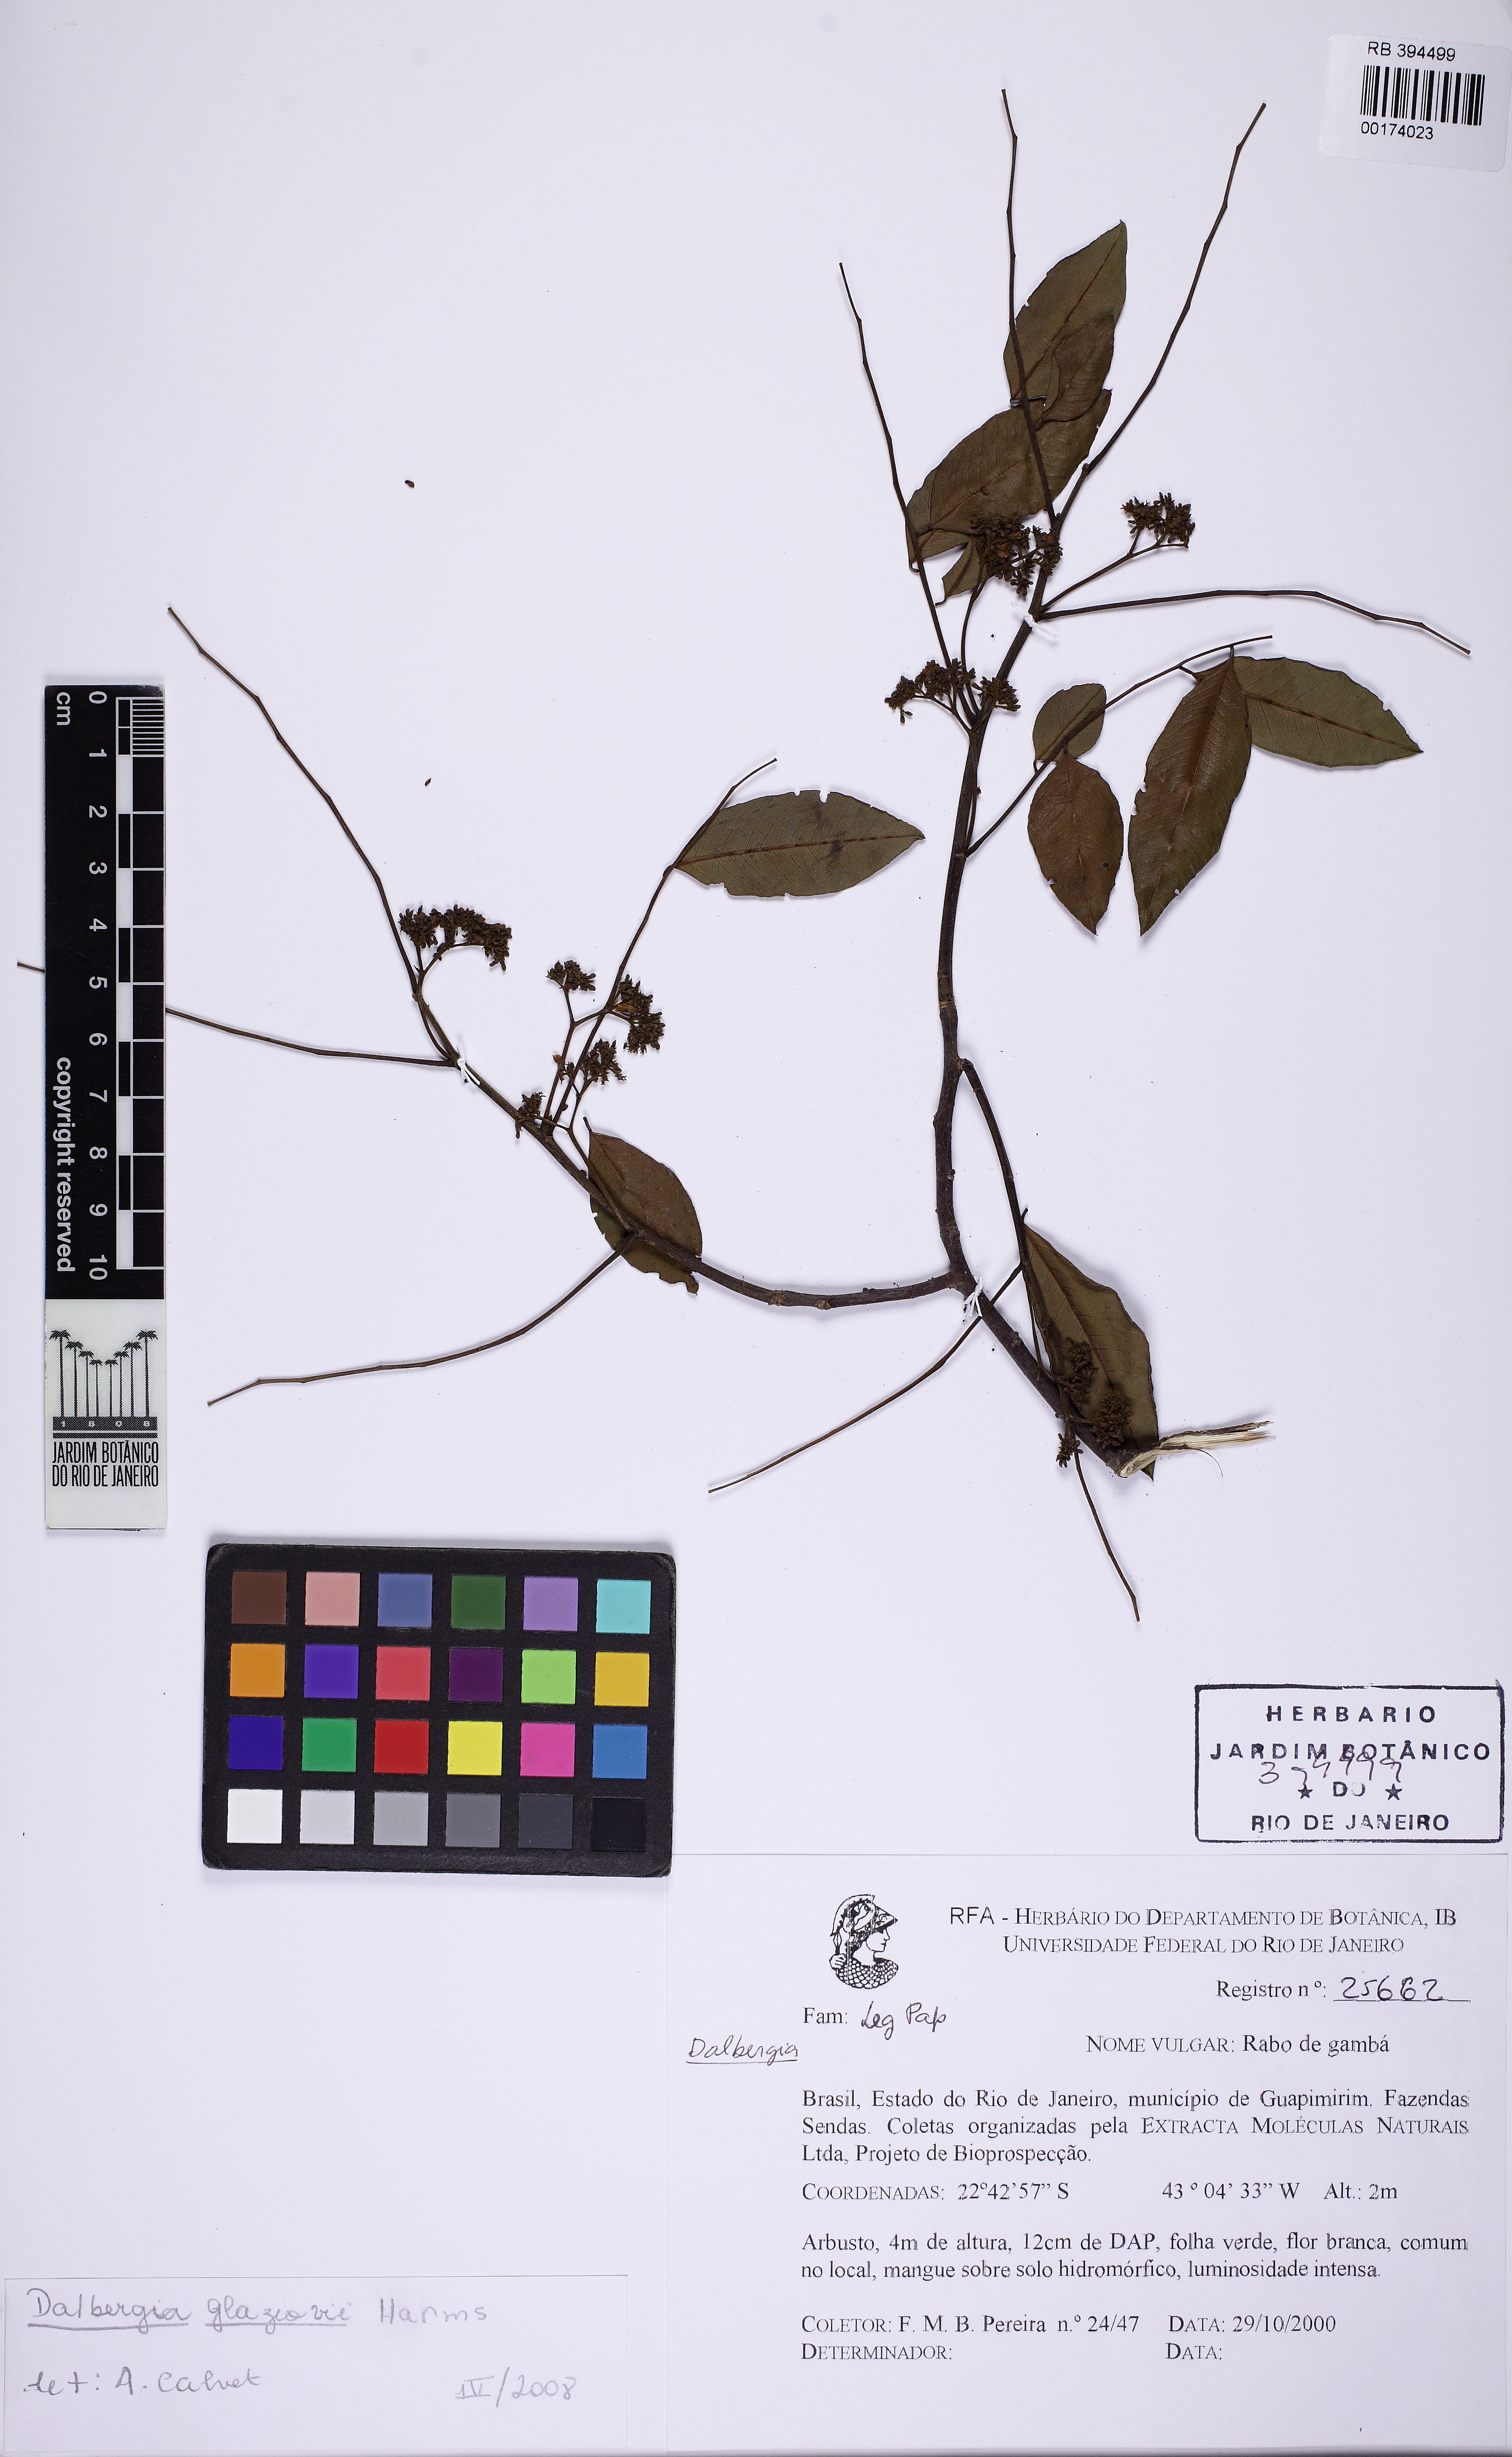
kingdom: Plantae
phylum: Tracheophyta
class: Magnoliopsida
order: Fabales
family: Fabaceae
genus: Dalbergia
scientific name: Dalbergia glaziovii
